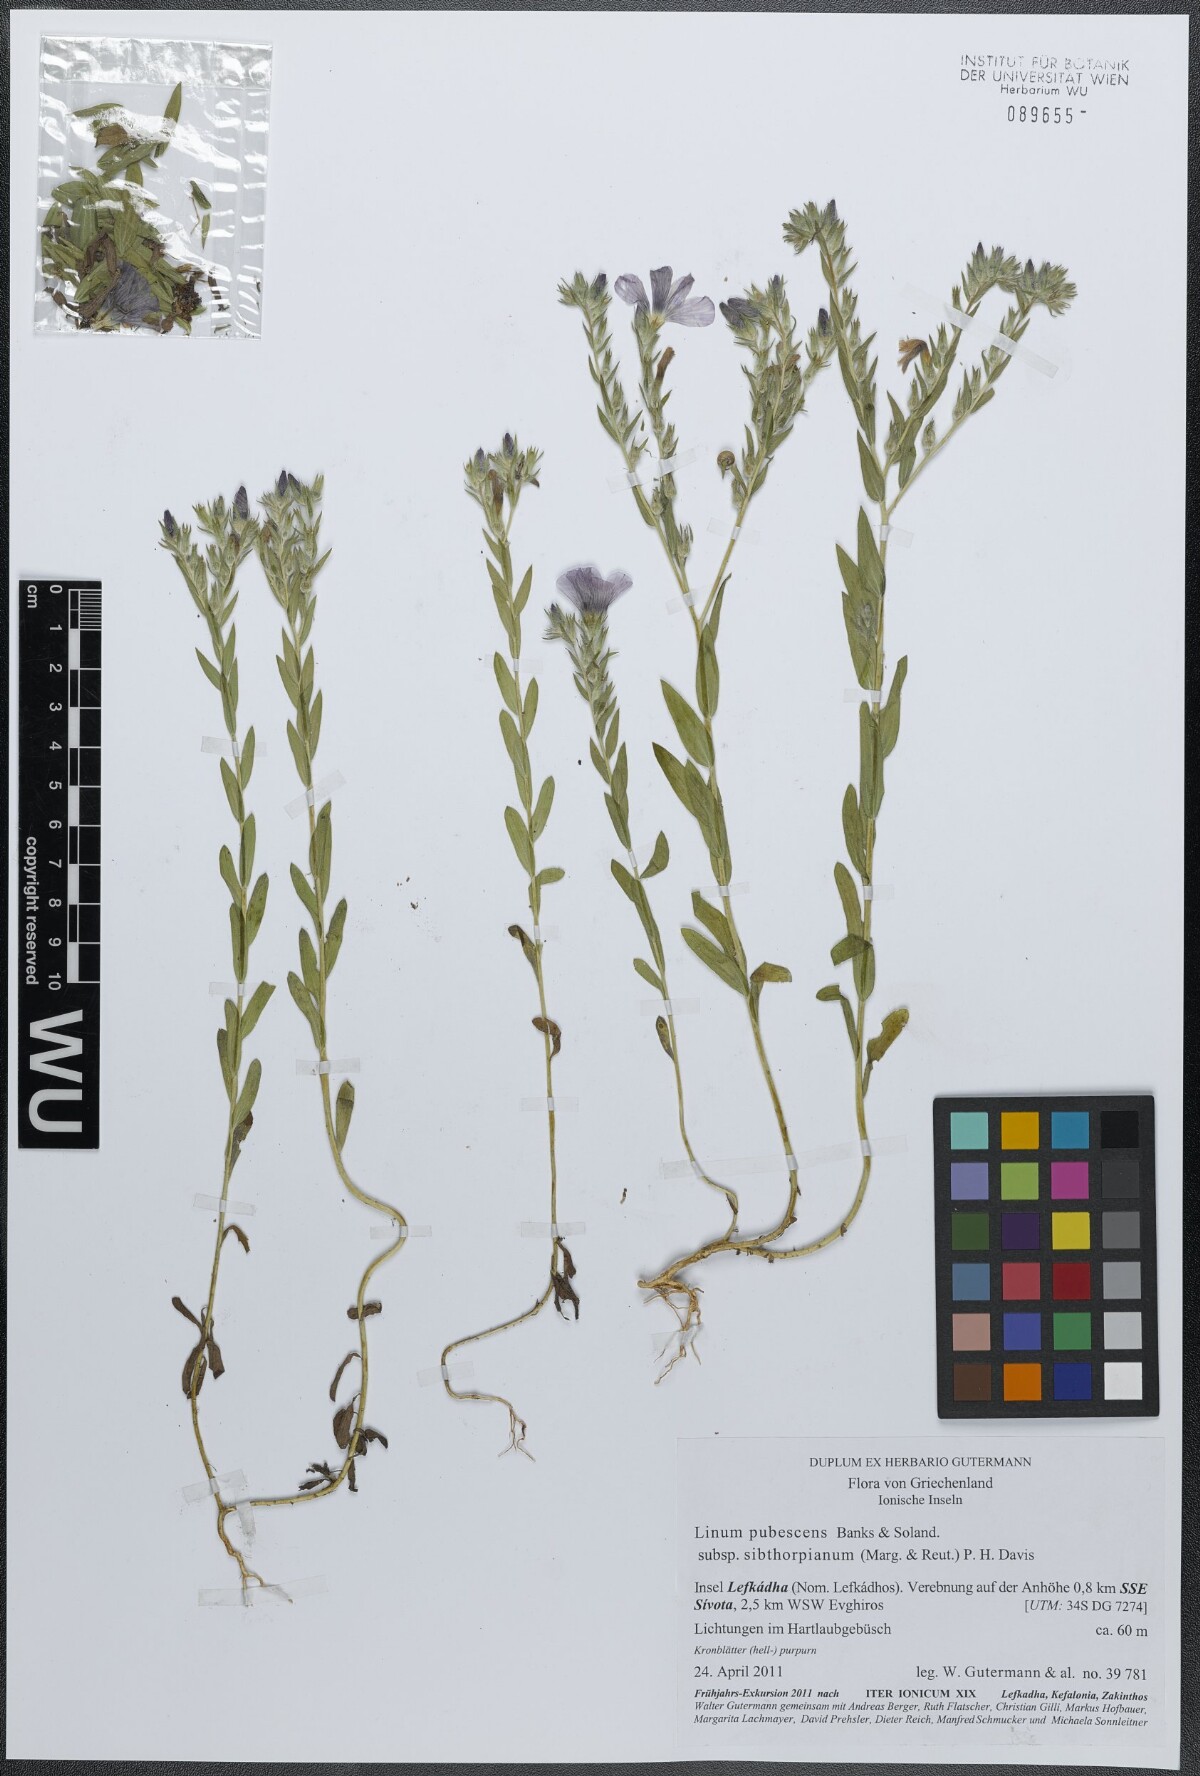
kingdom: Plantae
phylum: Tracheophyta
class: Magnoliopsida
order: Malpighiales
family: Linaceae
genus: Linum
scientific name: Linum pubescens
